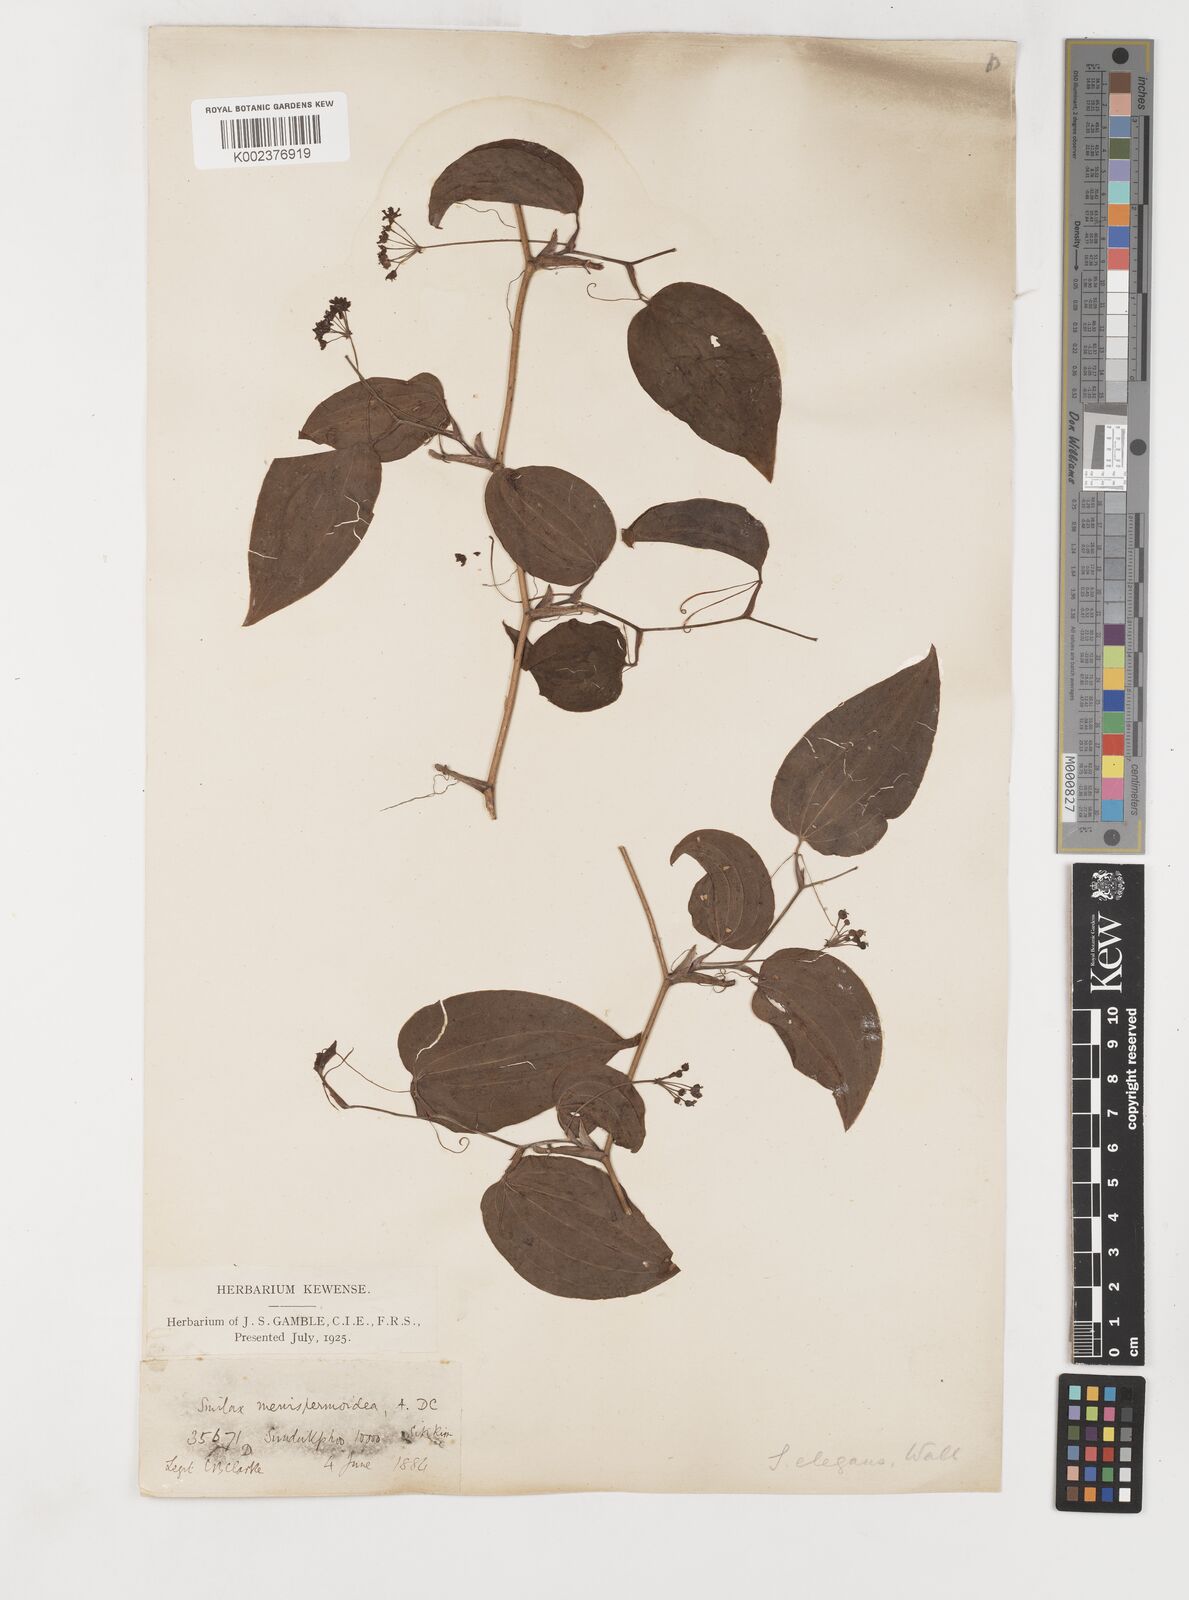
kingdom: Plantae
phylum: Tracheophyta
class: Liliopsida
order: Liliales
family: Smilacaceae
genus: Smilax
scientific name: Smilax menispermoidea
